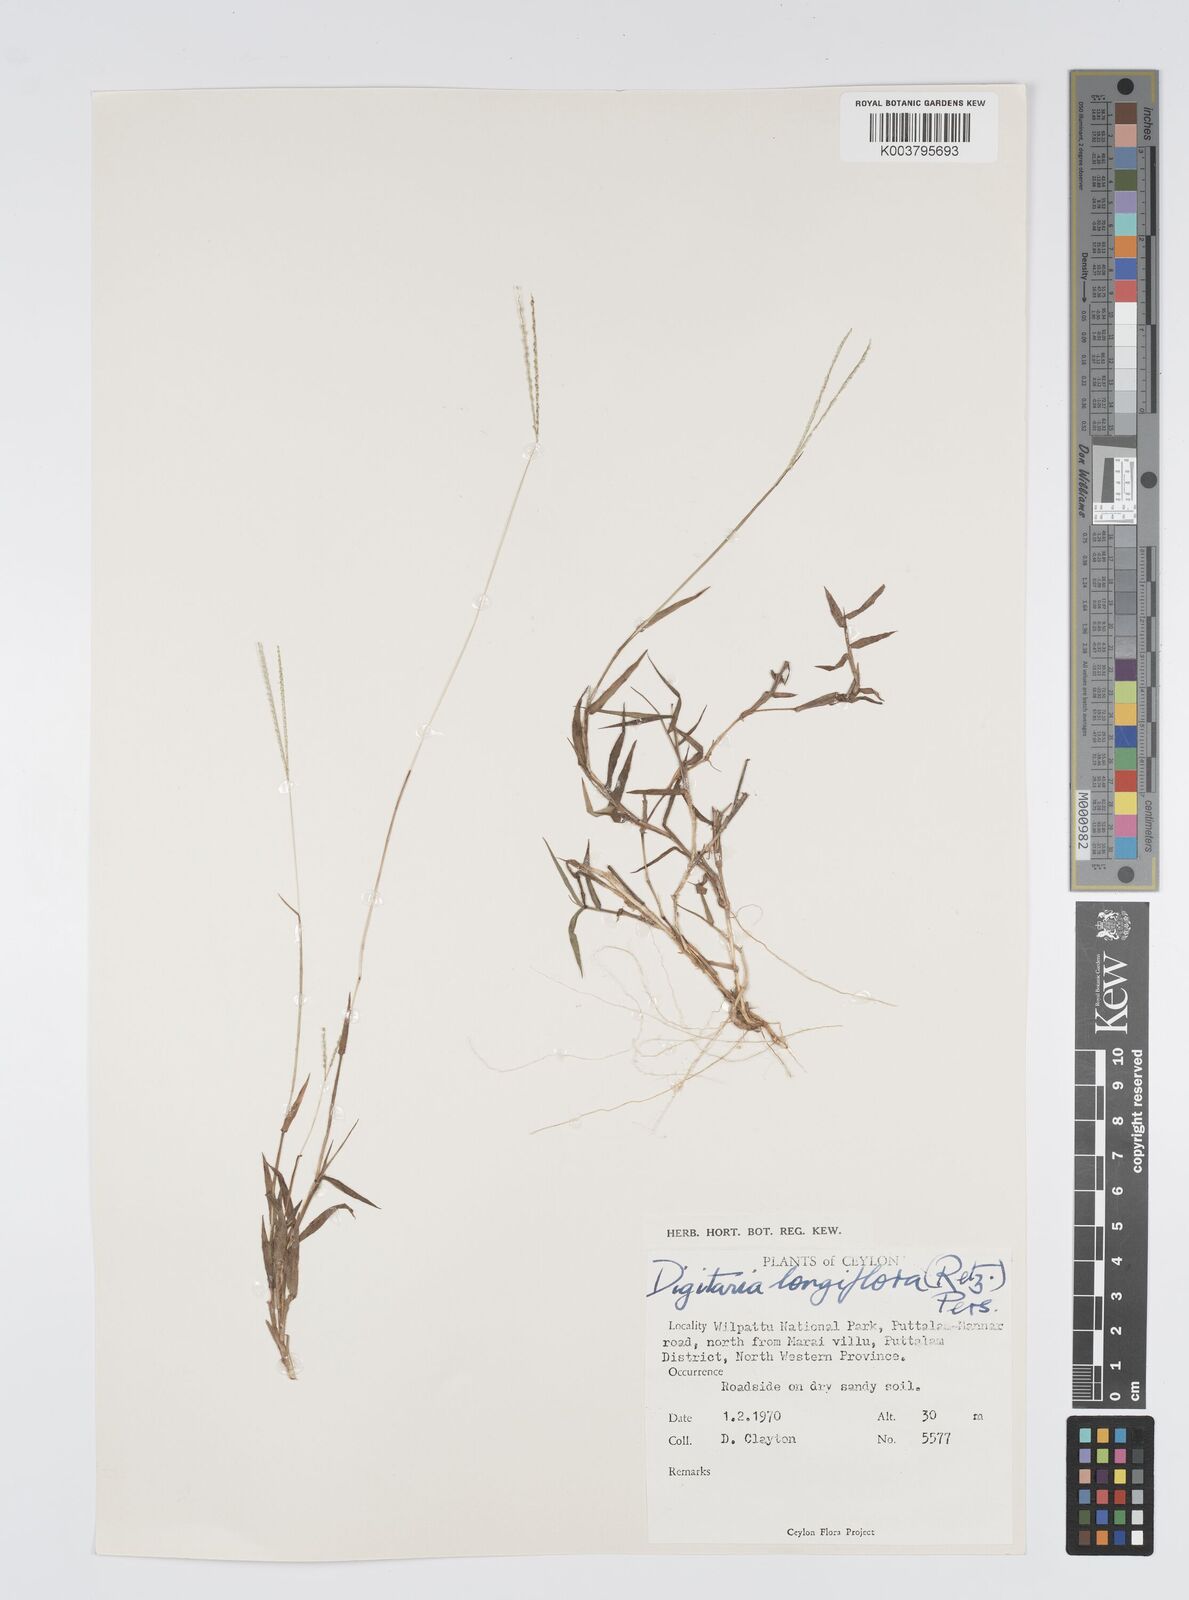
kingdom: Plantae
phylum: Tracheophyta
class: Liliopsida
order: Poales
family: Poaceae
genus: Digitaria
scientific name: Digitaria longiflora
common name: Wire crabgrass
